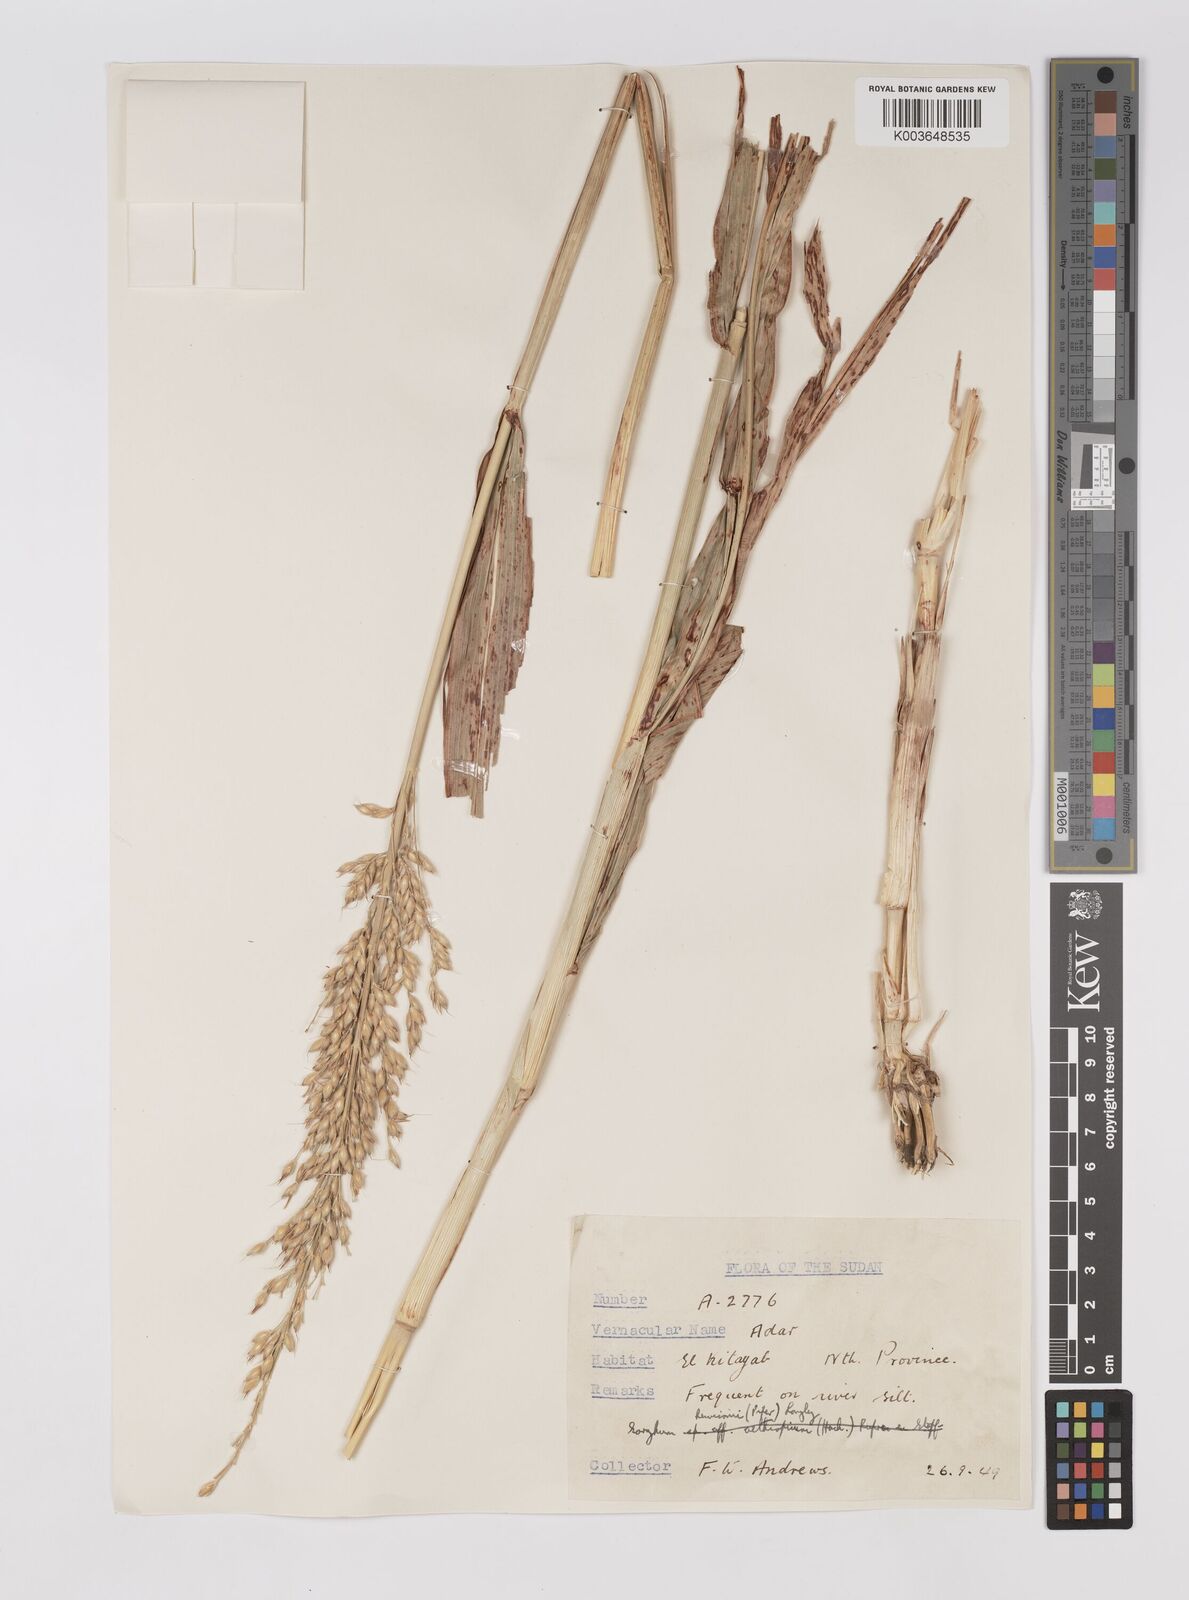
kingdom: Plantae
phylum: Tracheophyta
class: Liliopsida
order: Poales
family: Poaceae
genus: Sorghum
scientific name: Sorghum drummondii
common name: Sudangrass
